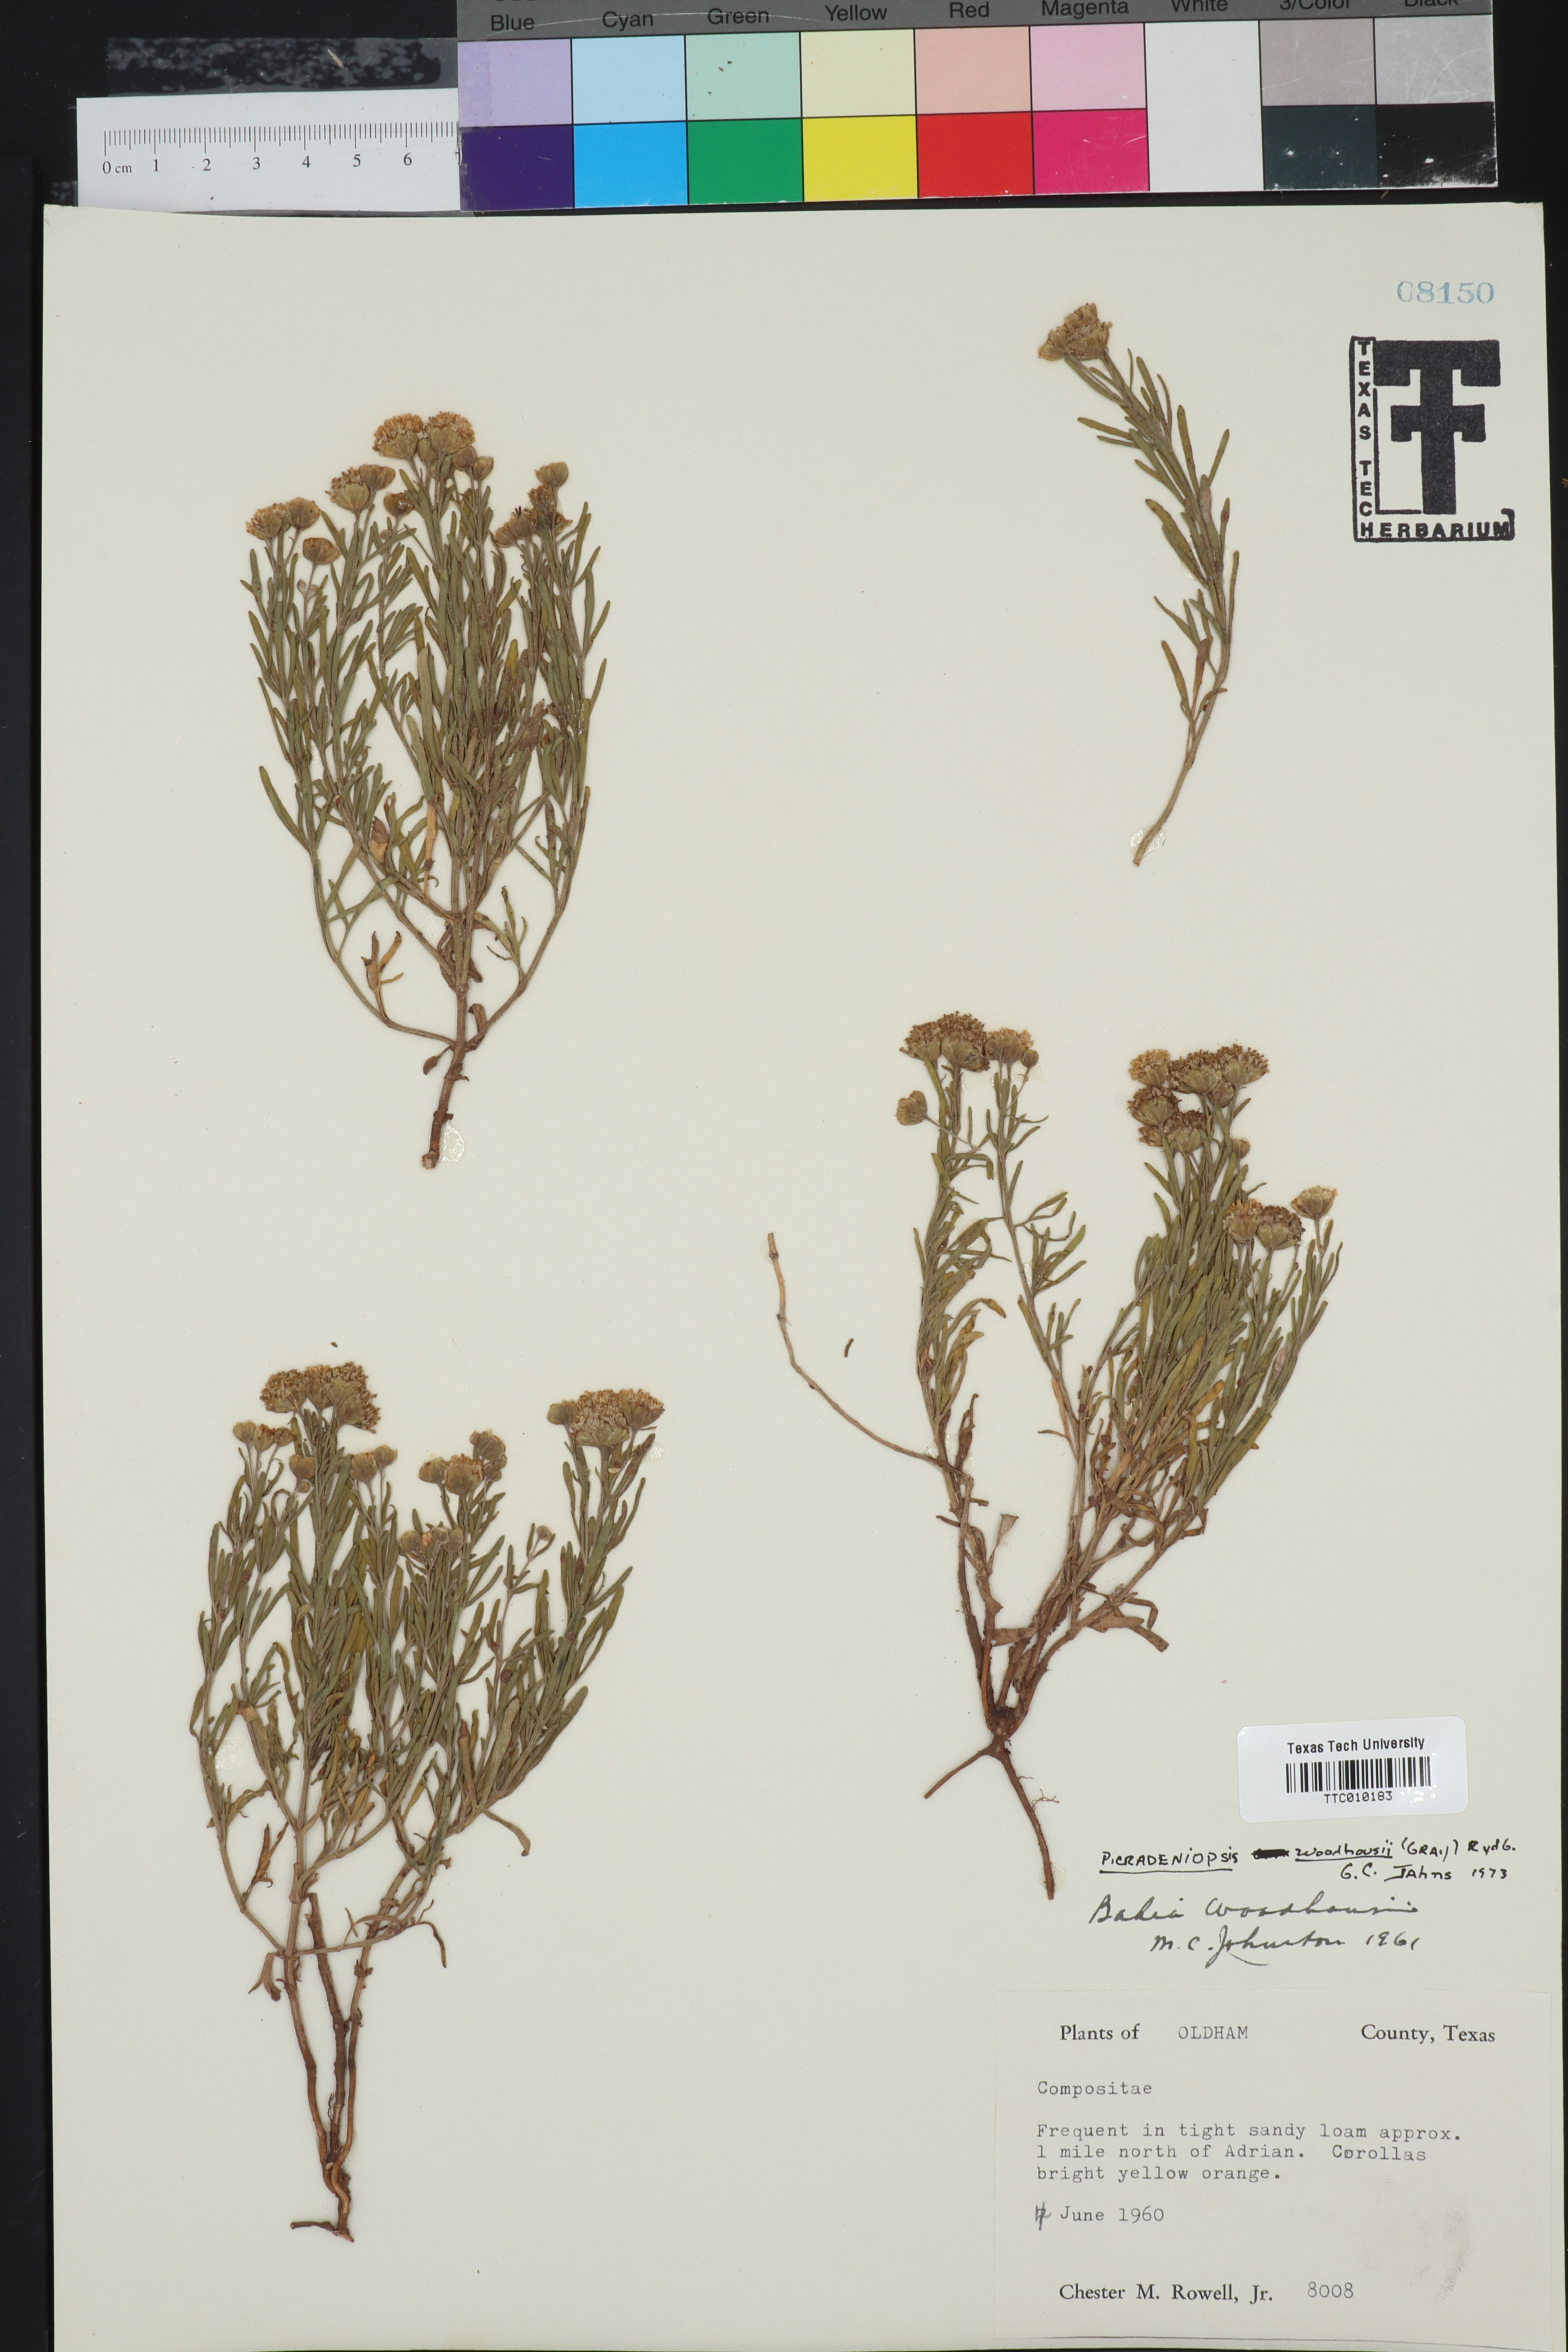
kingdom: Plantae
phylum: Tracheophyta
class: Magnoliopsida
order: Asterales
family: Asteraceae
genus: Picradeniopsis
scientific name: Picradeniopsis woodhousei
